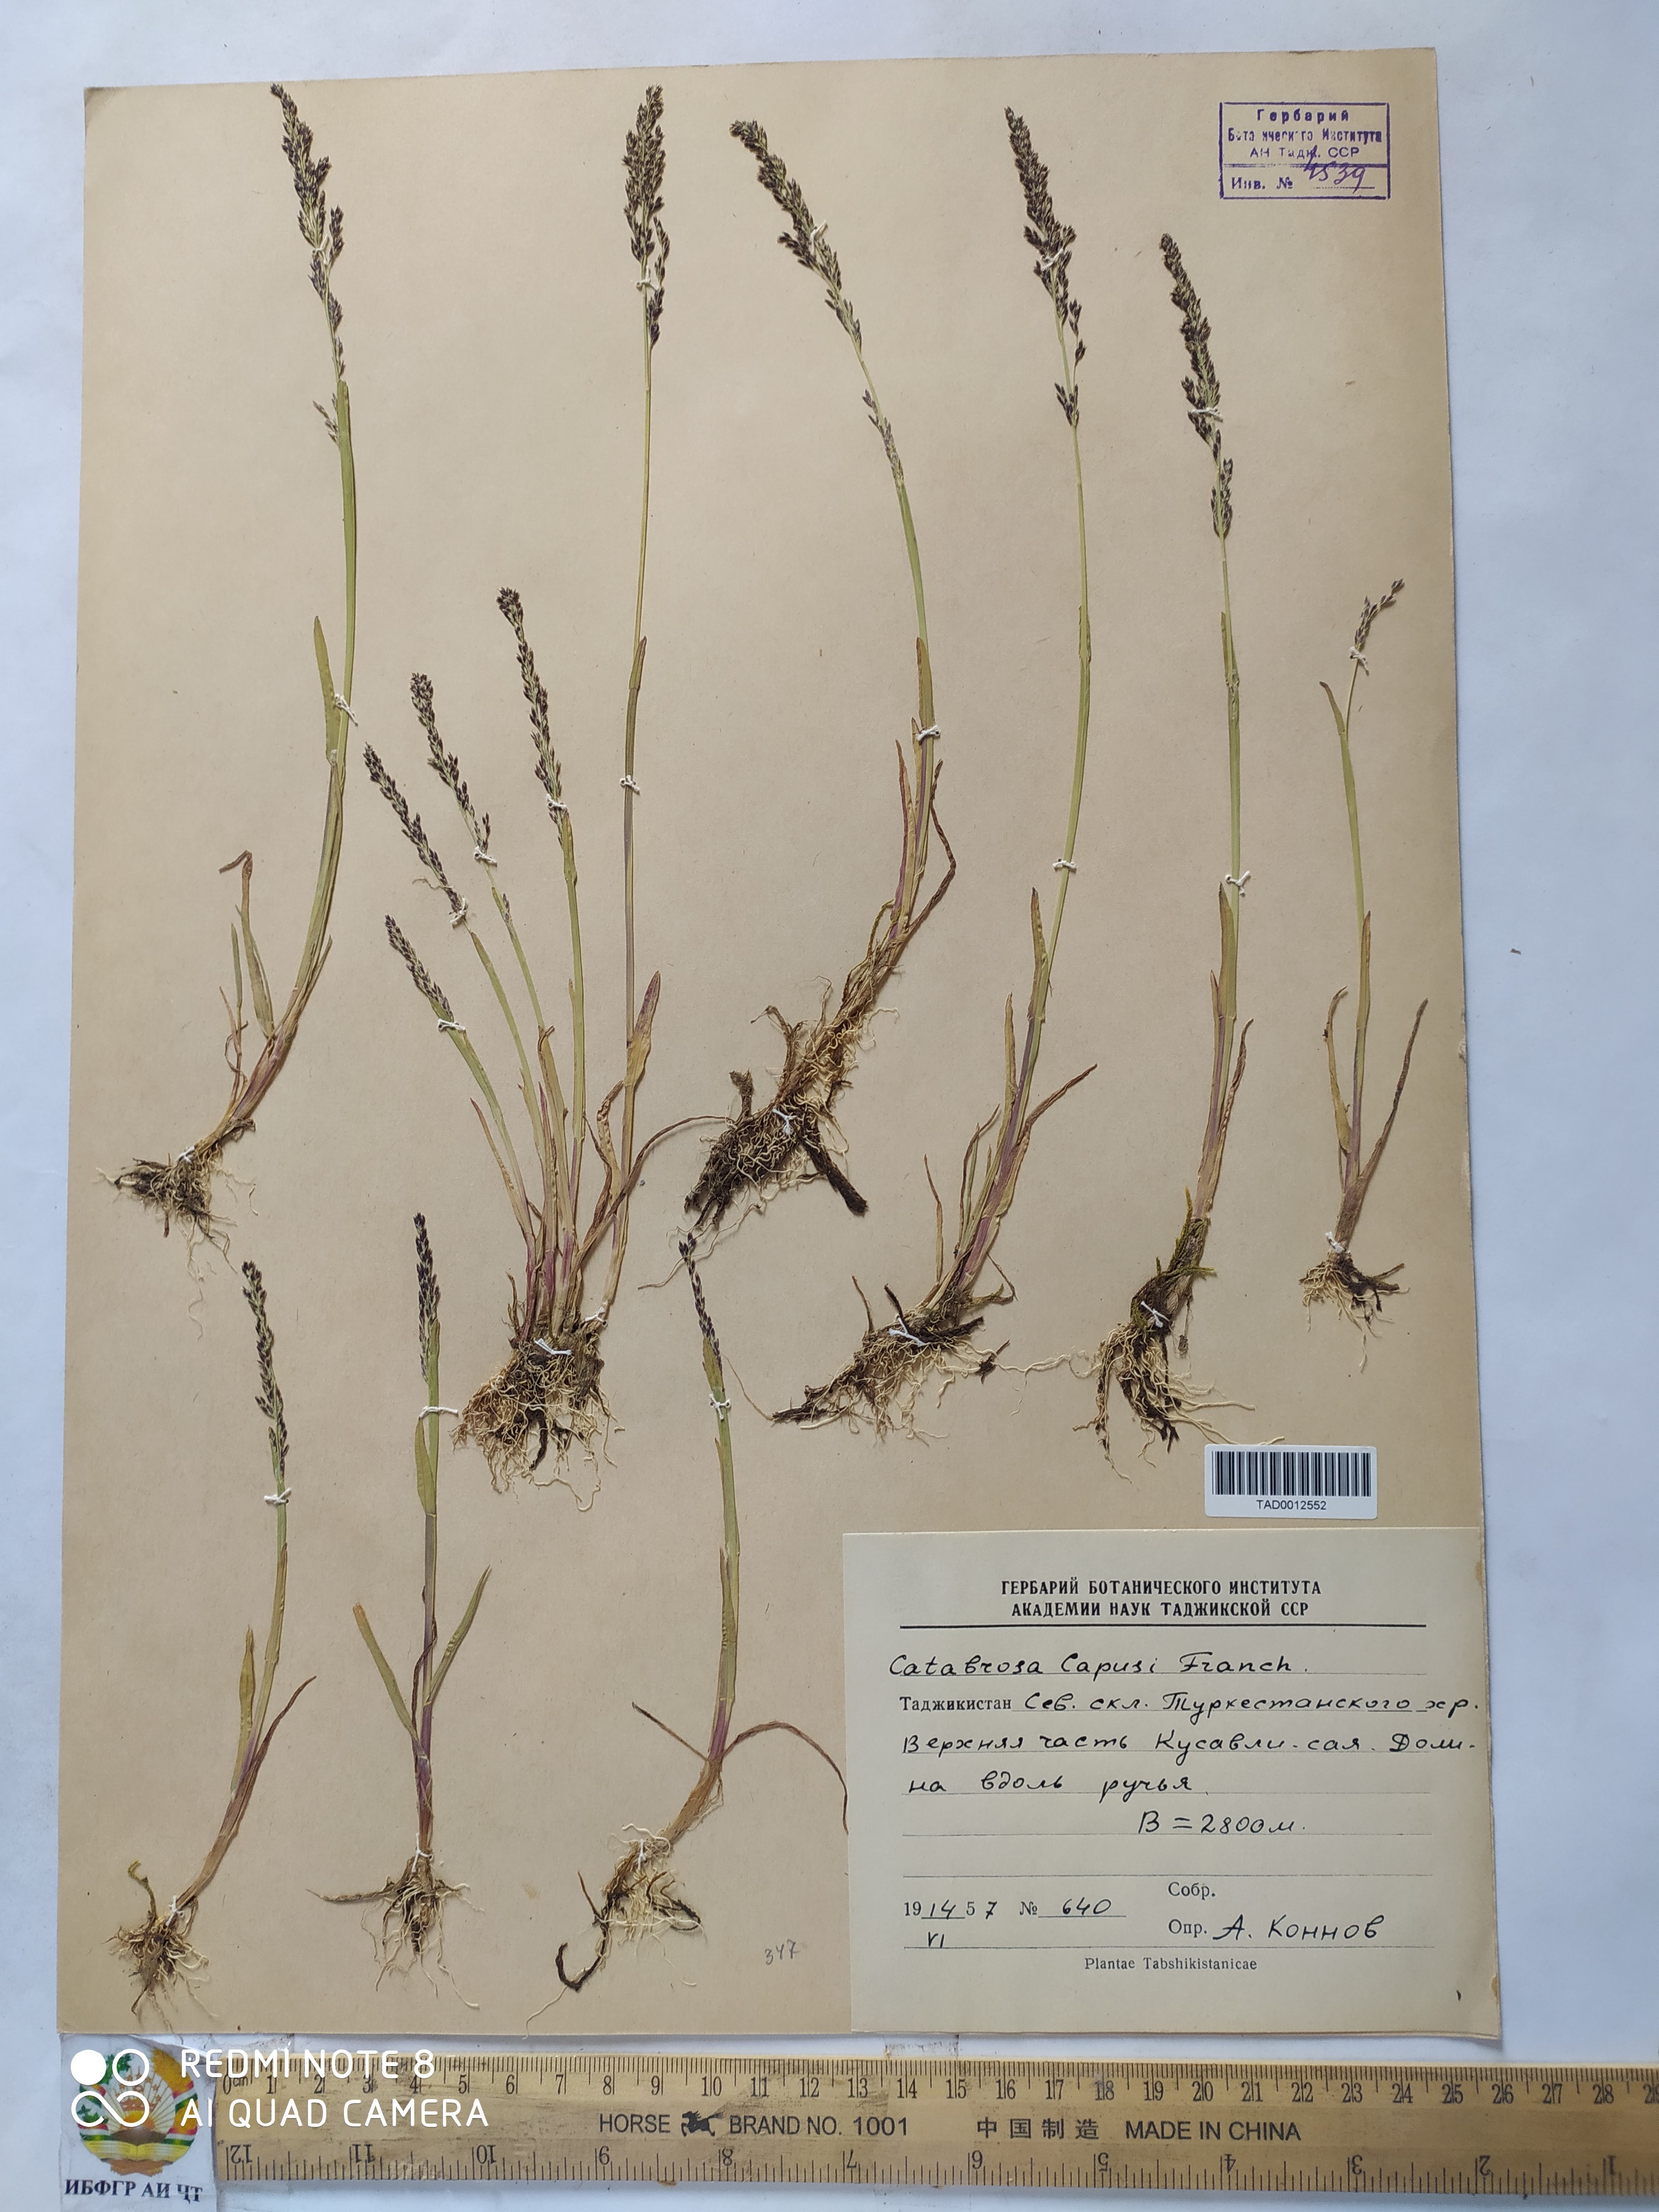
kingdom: Plantae
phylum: Tracheophyta
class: Liliopsida
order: Poales
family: Poaceae
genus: Catabrosa
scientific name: Catabrosa aquatica
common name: Whorl-grass
